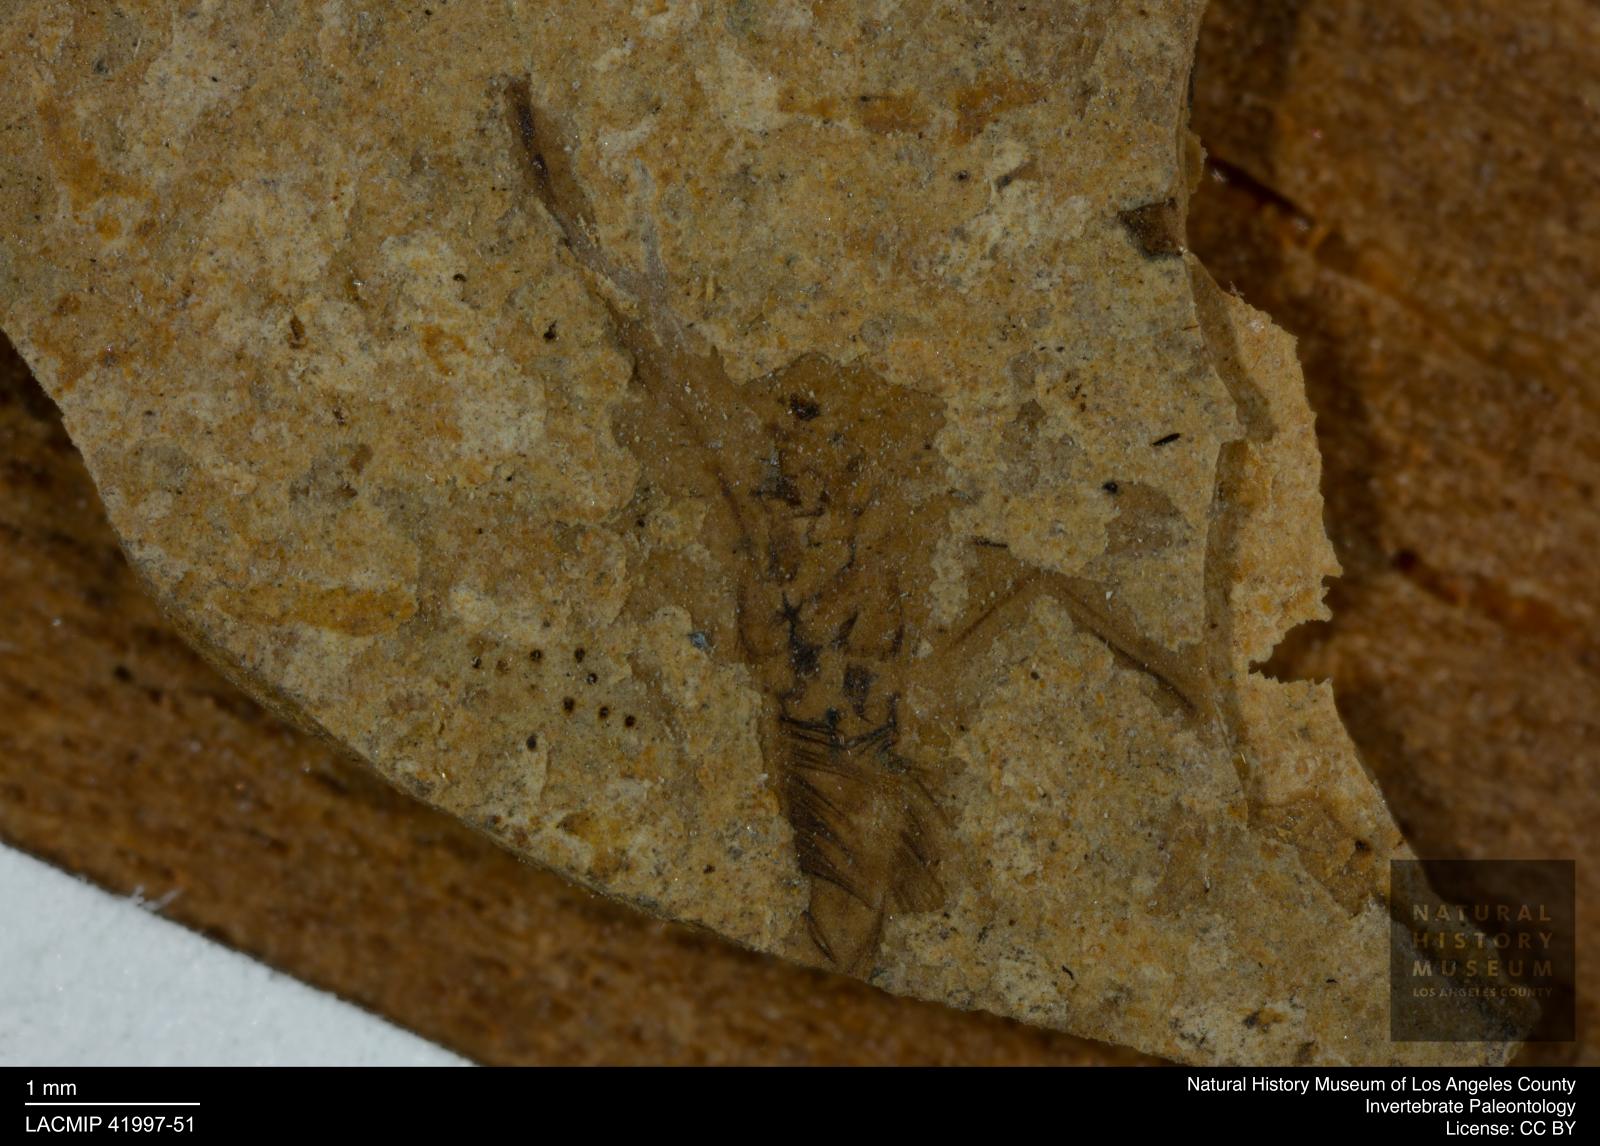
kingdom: Animalia
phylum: Arthropoda
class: Insecta
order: Hemiptera
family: Notonectidae
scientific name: Notonectidae
